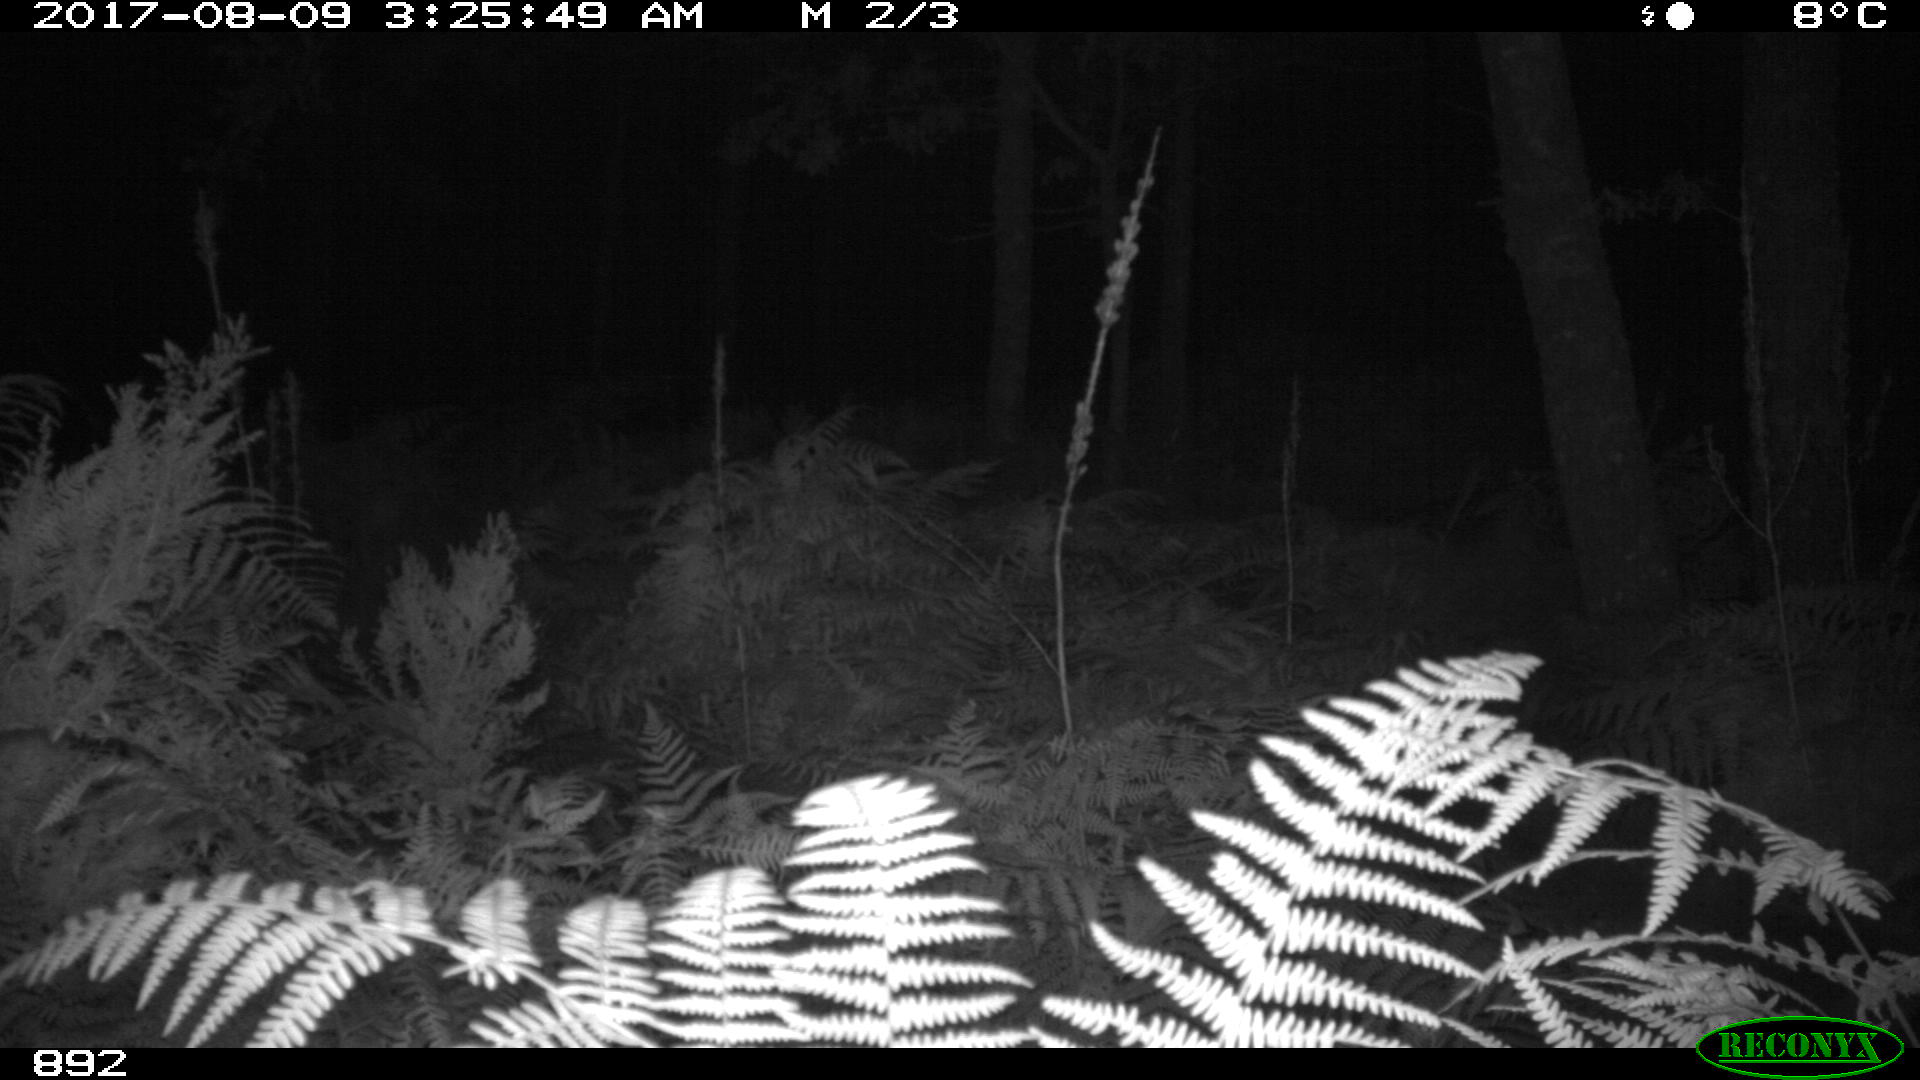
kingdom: Animalia
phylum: Chordata
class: Mammalia
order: Artiodactyla
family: Cervidae
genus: Capreolus
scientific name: Capreolus capreolus
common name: Western roe deer
